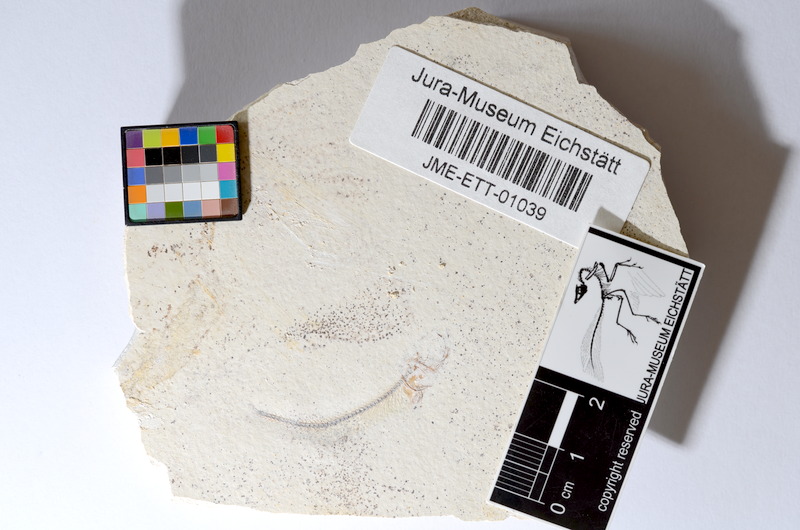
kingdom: Animalia
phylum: Chordata
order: Salmoniformes
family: Orthogonikleithridae
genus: Orthogonikleithrus
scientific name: Orthogonikleithrus hoelli
